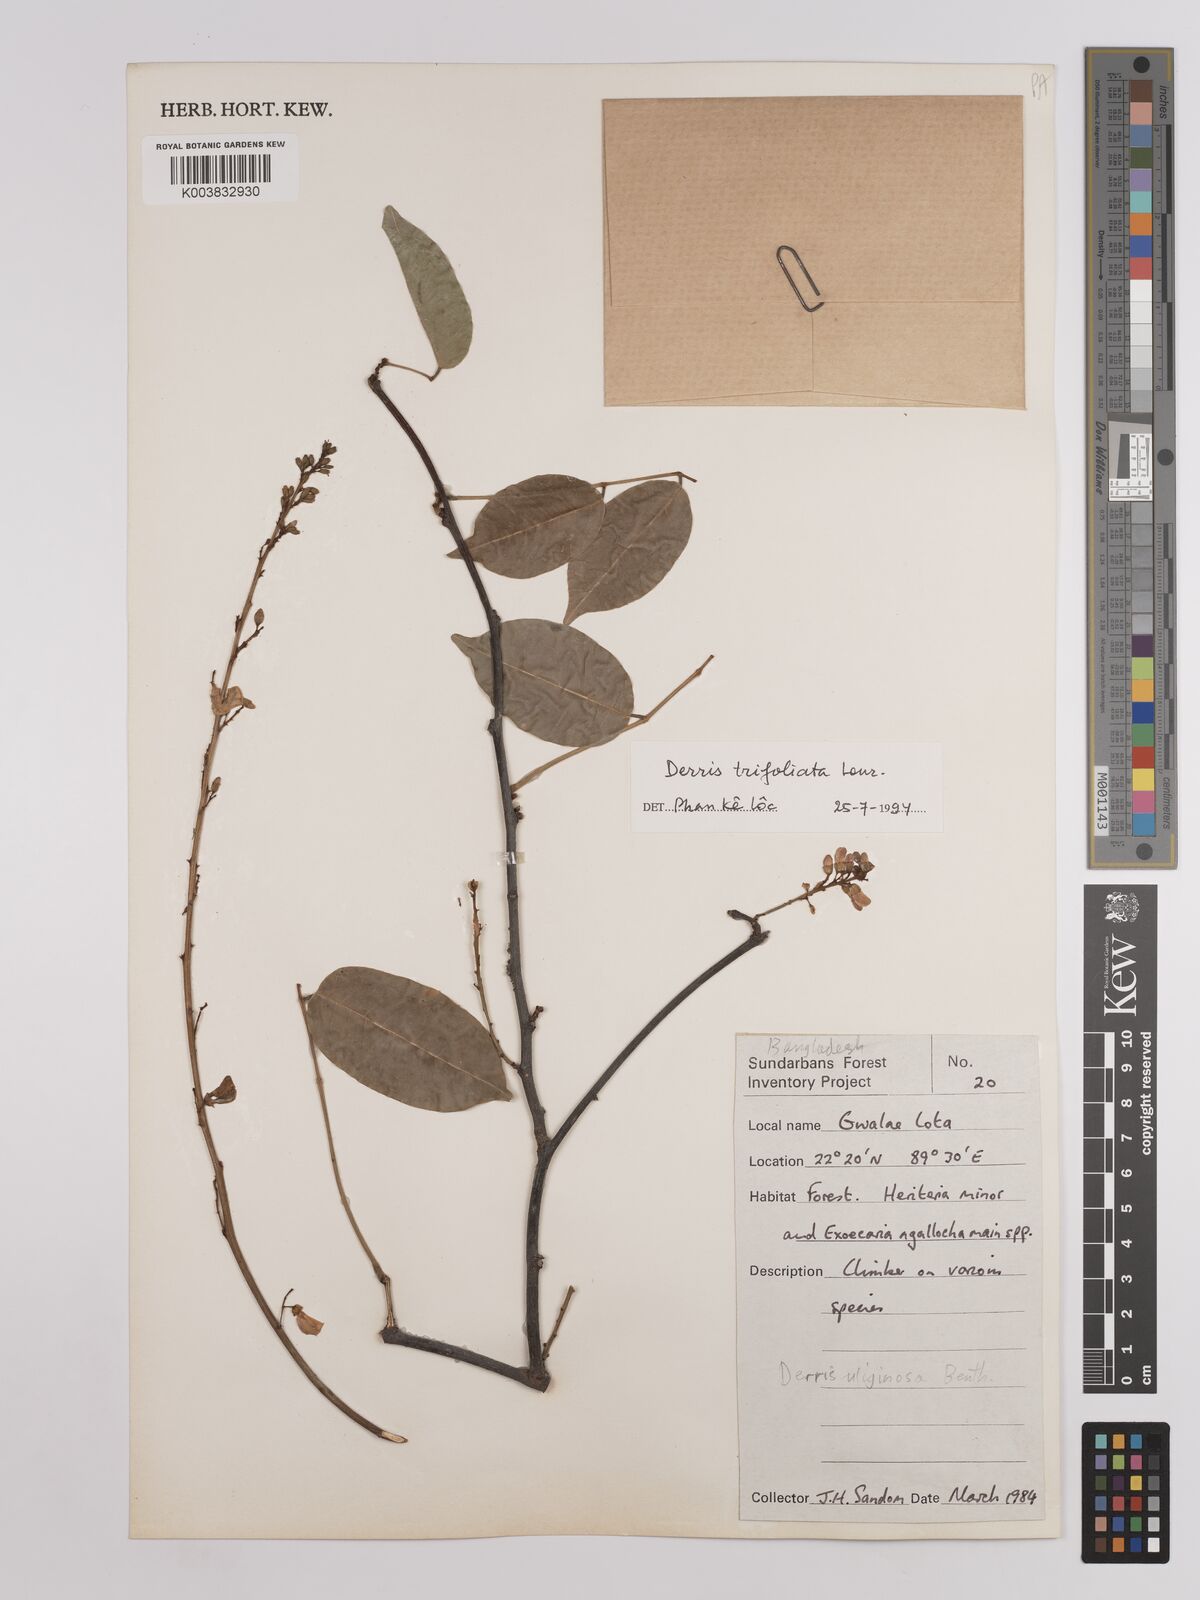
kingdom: Plantae
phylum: Tracheophyta
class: Magnoliopsida
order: Fabales
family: Fabaceae
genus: Derris
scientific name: Derris trifoliata
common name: Three-leaf derris
